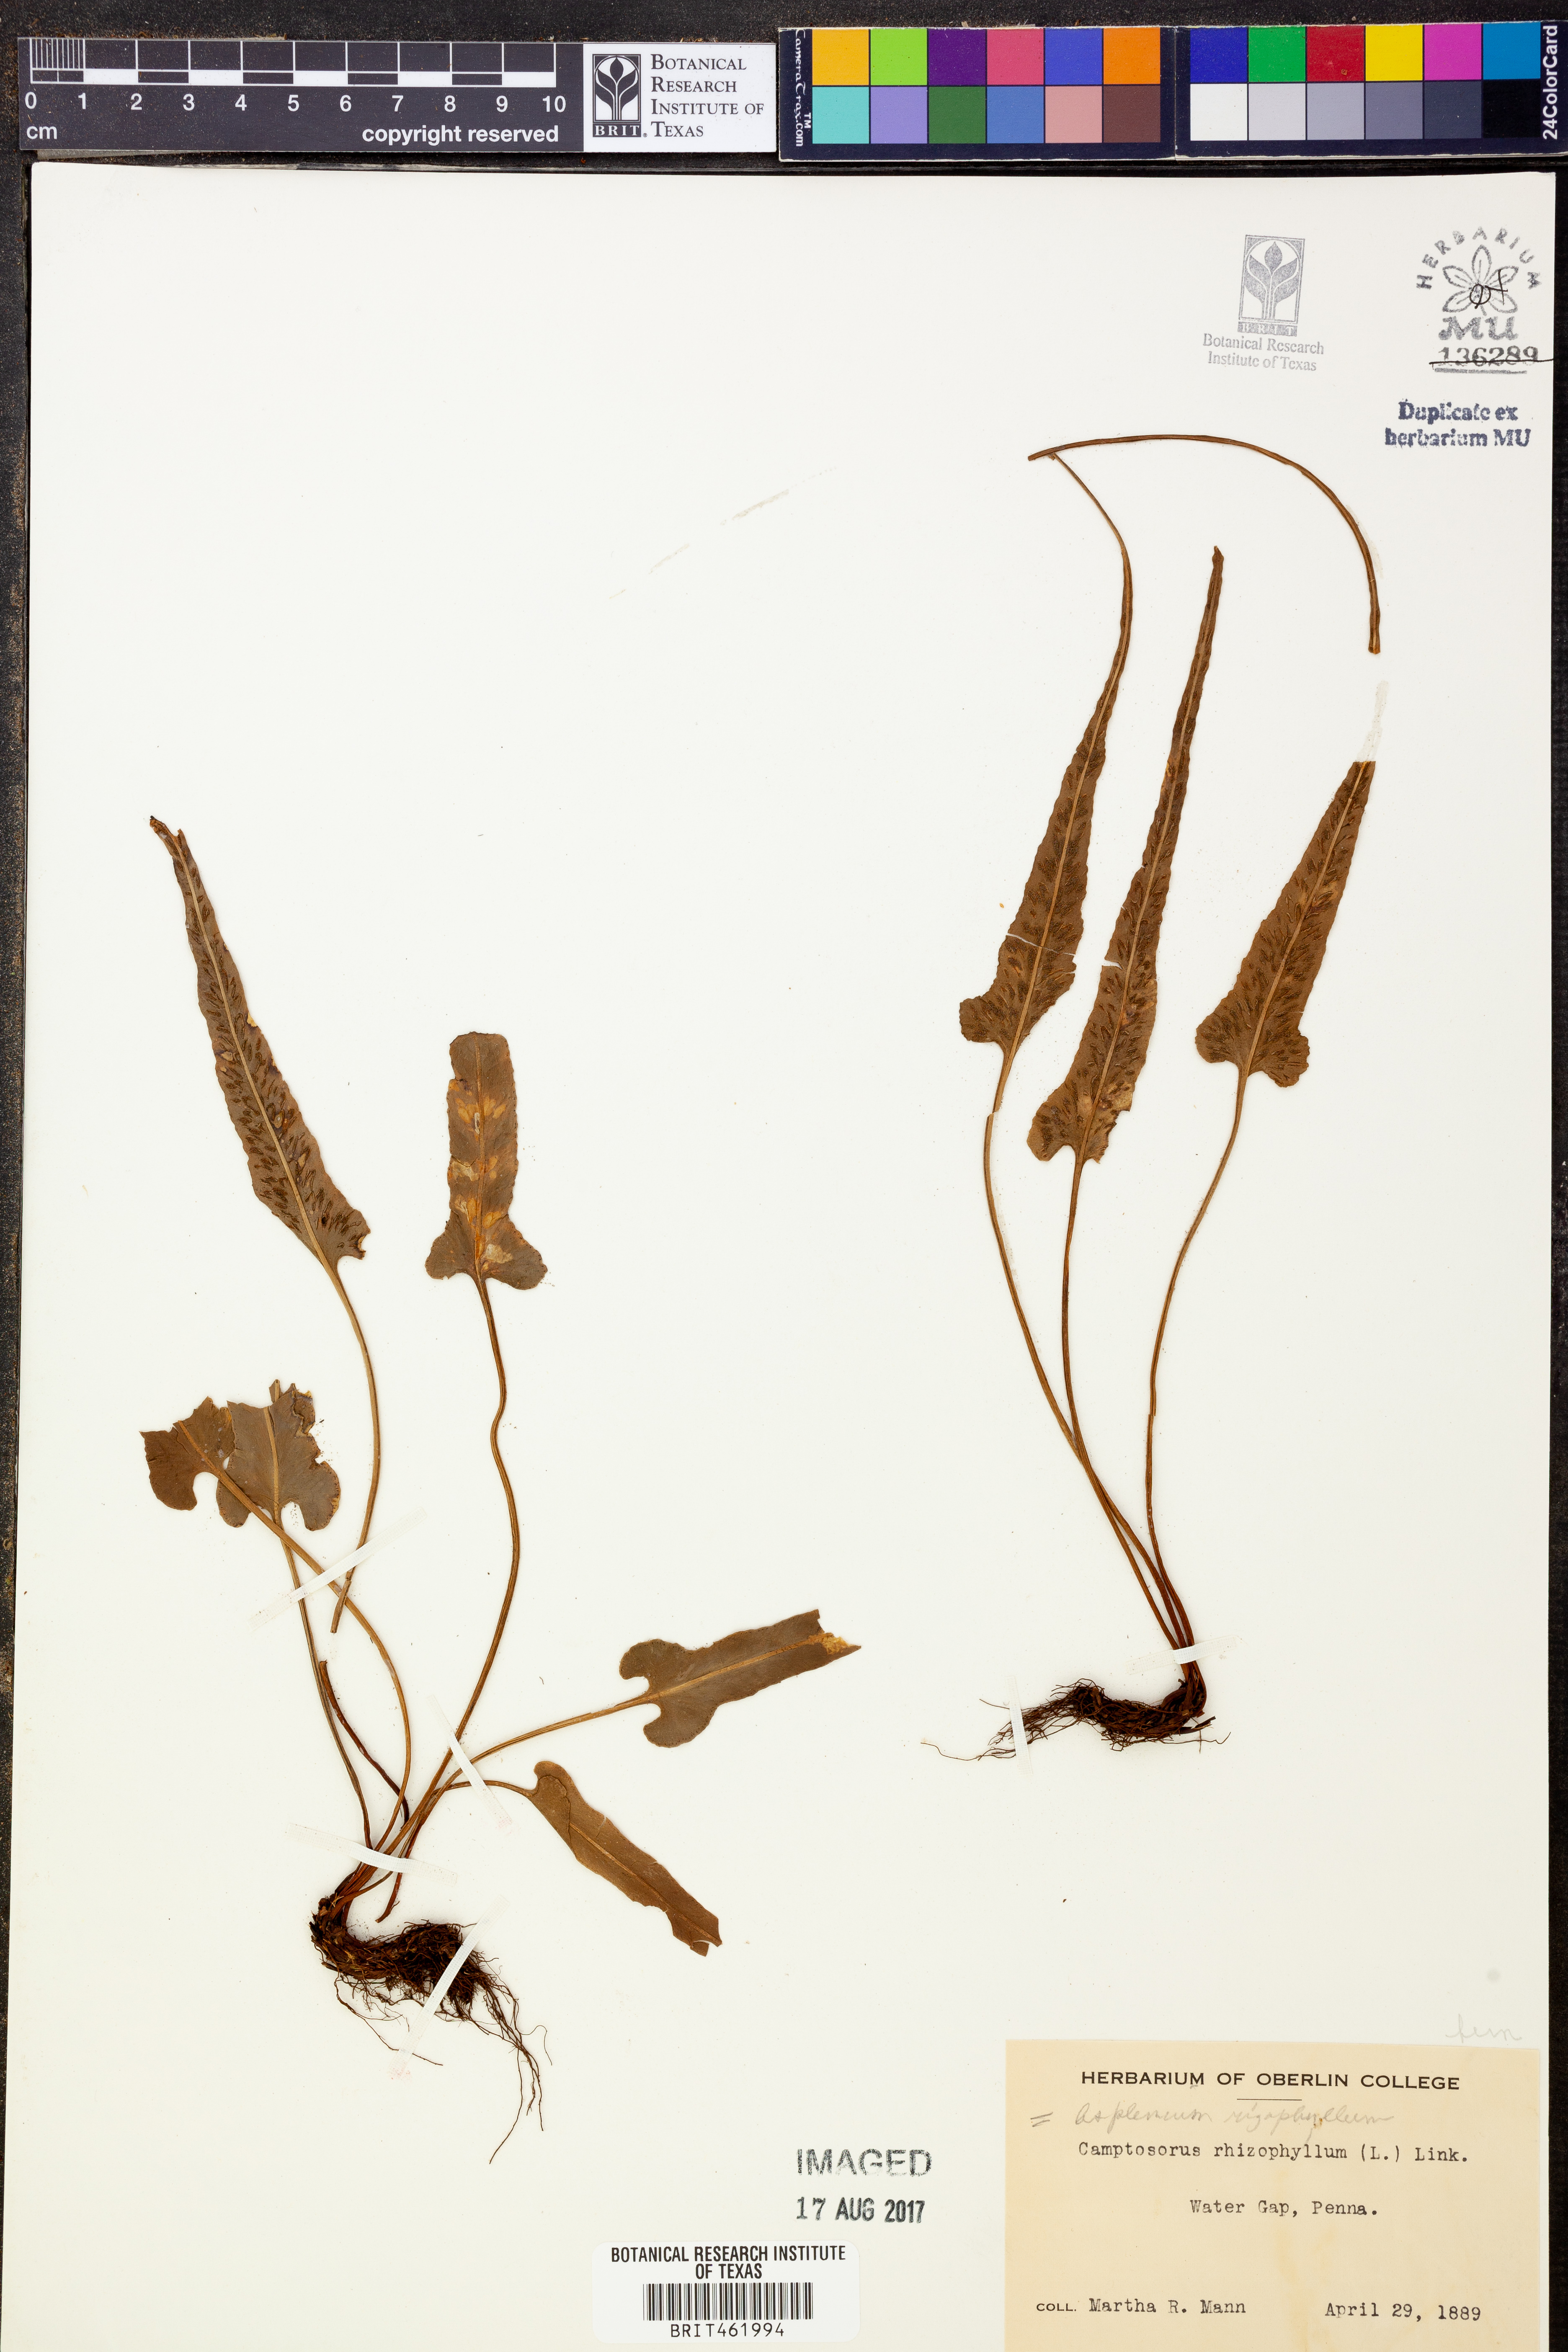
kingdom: Plantae
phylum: Tracheophyta
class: Polypodiopsida
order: Polypodiales
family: Aspleniaceae
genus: Asplenium
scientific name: Asplenium rhizophyllum
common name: Walking fern
